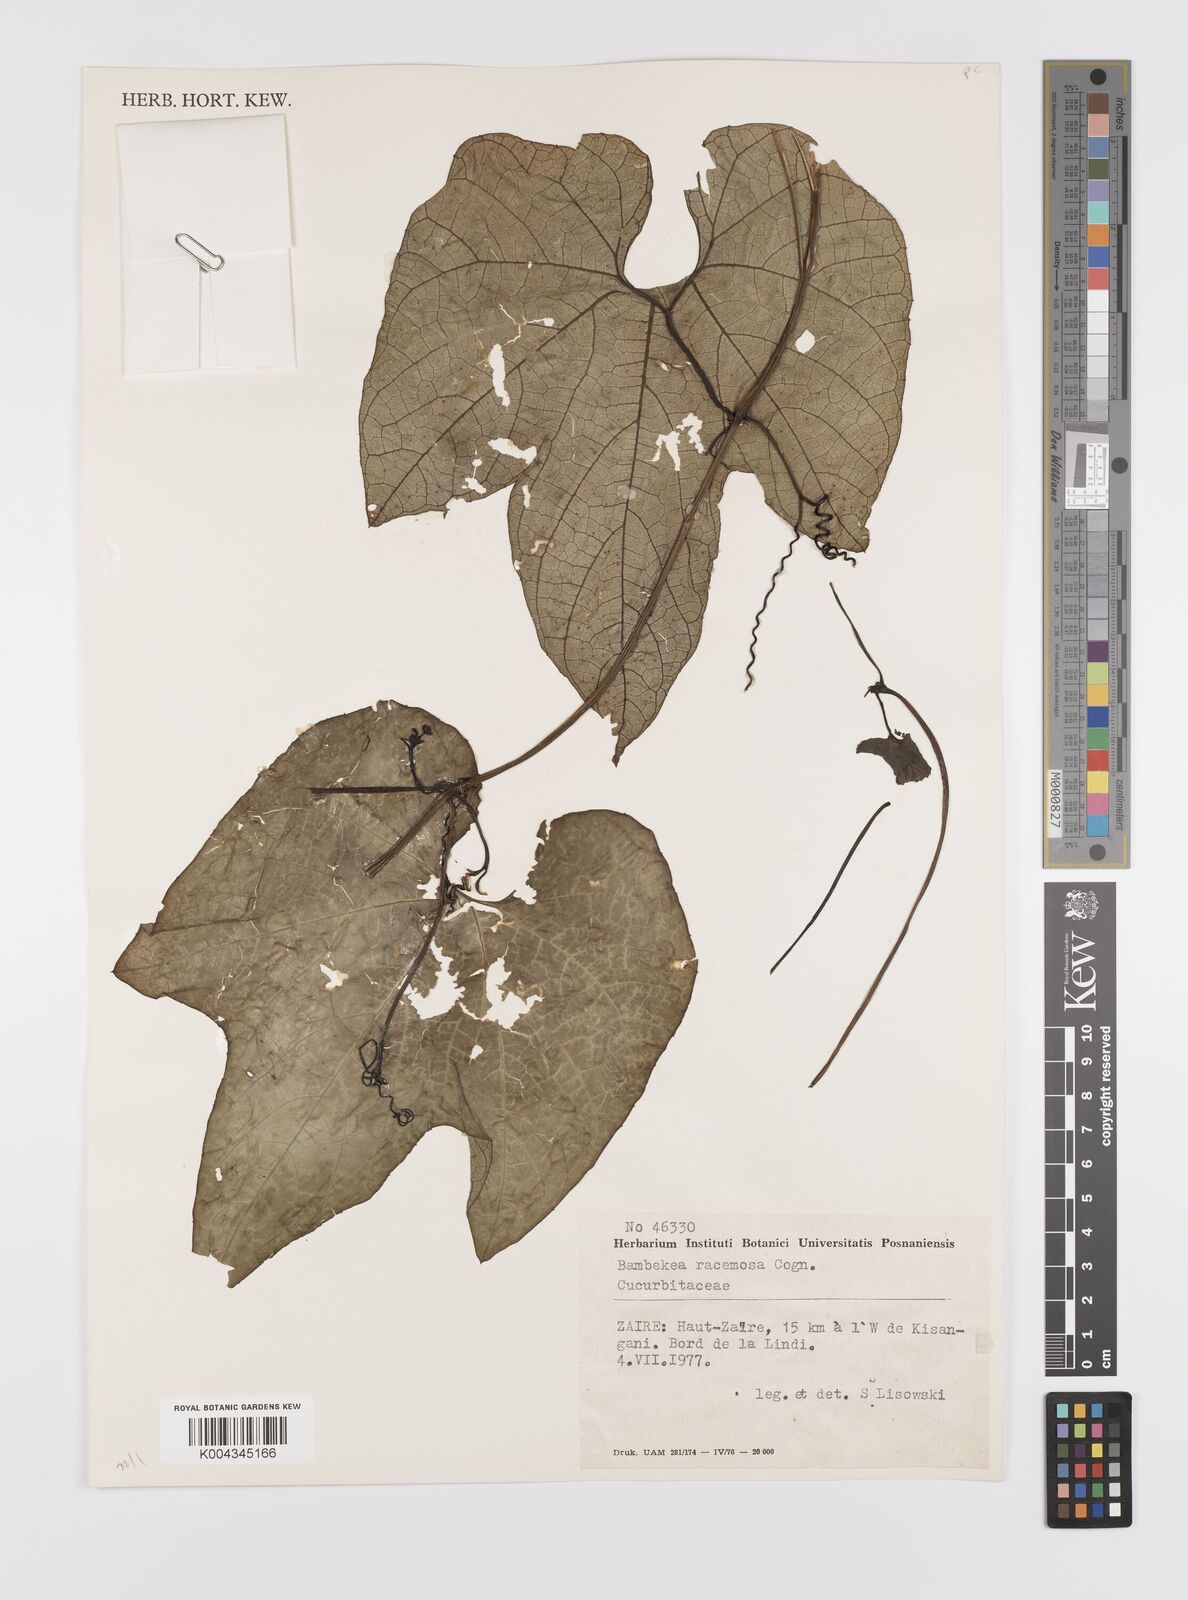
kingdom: Plantae
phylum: Tracheophyta
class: Magnoliopsida
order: Cucurbitales
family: Cucurbitaceae
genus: Bambekea
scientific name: Bambekea racemosa
